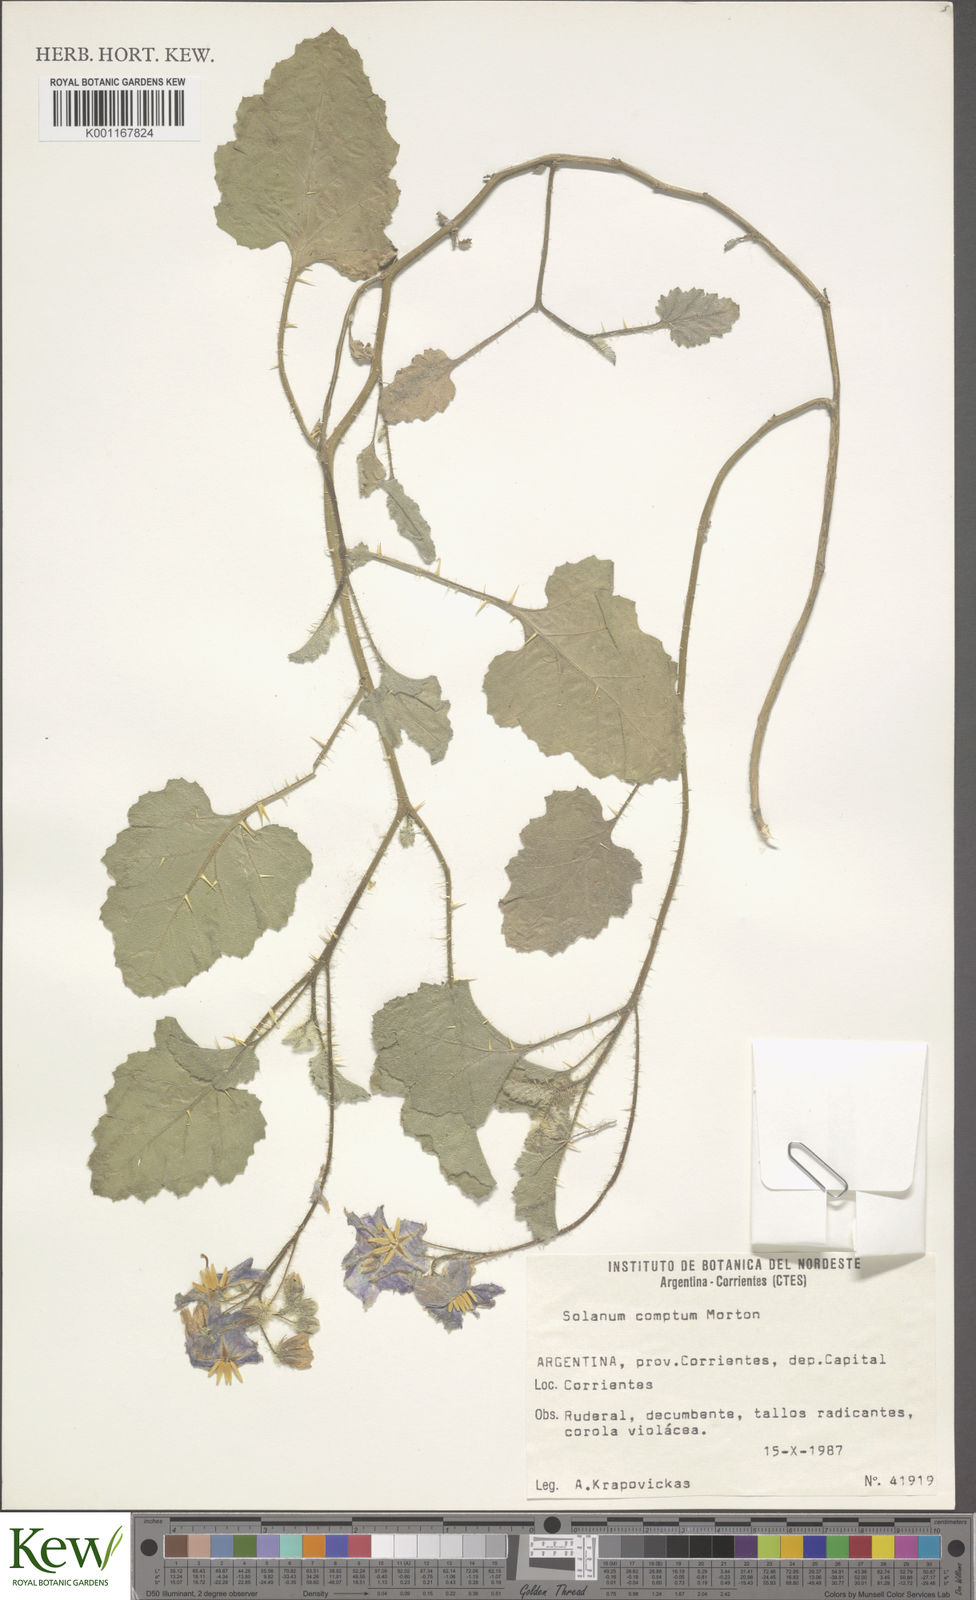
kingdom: Plantae
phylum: Tracheophyta
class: Magnoliopsida
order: Solanales
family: Solanaceae
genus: Solanum
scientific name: Solanum comptum
